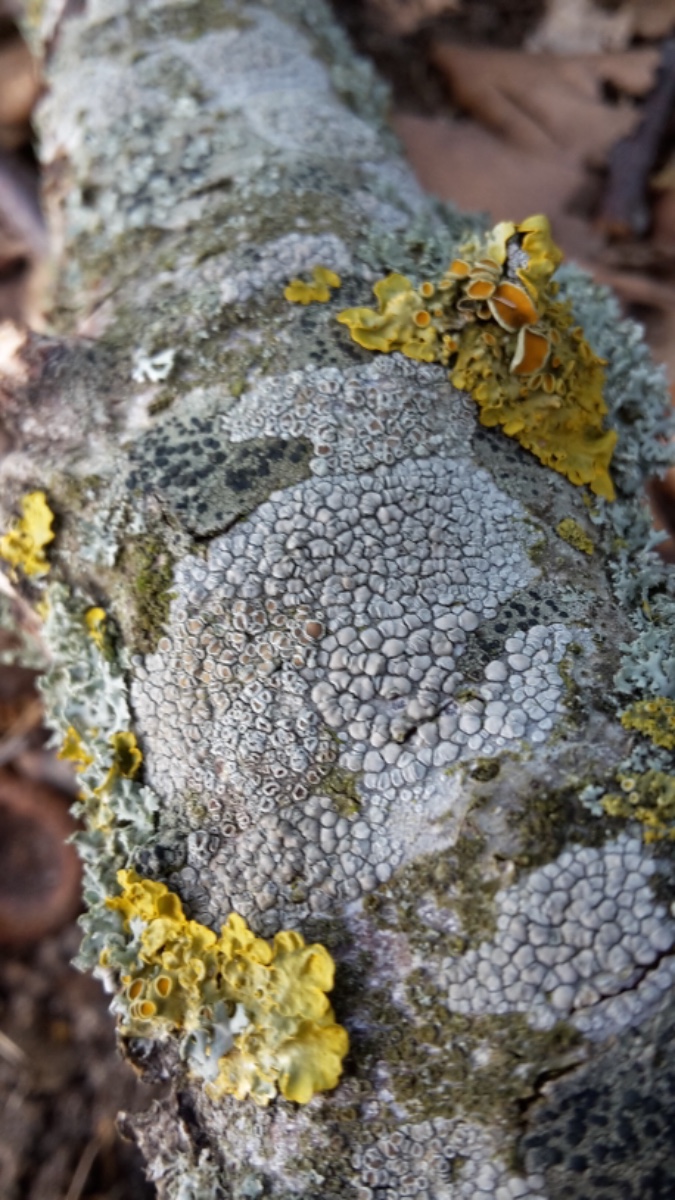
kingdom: Fungi
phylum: Ascomycota
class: Lecanoromycetes
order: Lecanorales
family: Lecanoraceae
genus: Lecanora
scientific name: Lecanora chlarotera
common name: brun kantskivelav
